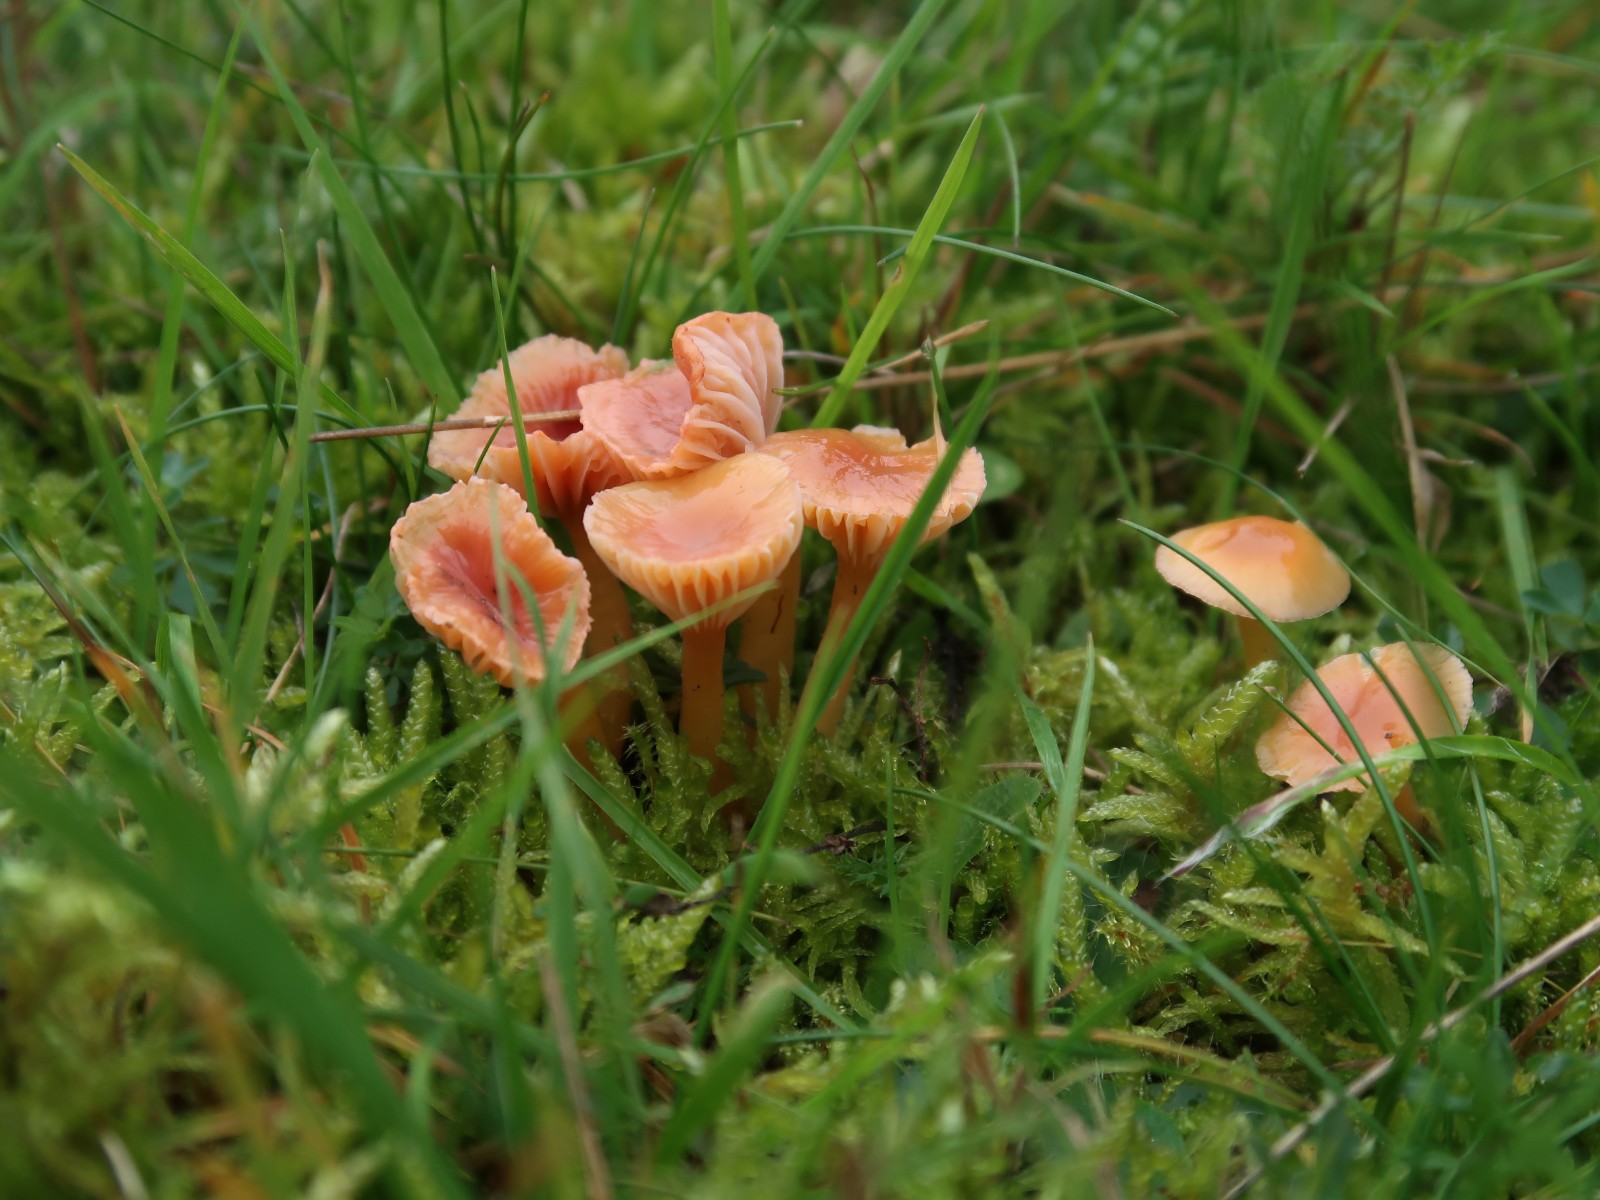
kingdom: Fungi
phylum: Basidiomycota
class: Agaricomycetes
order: Agaricales
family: Hygrophoraceae
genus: Gliophorus
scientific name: Gliophorus laetus
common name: brusk-vokshat
